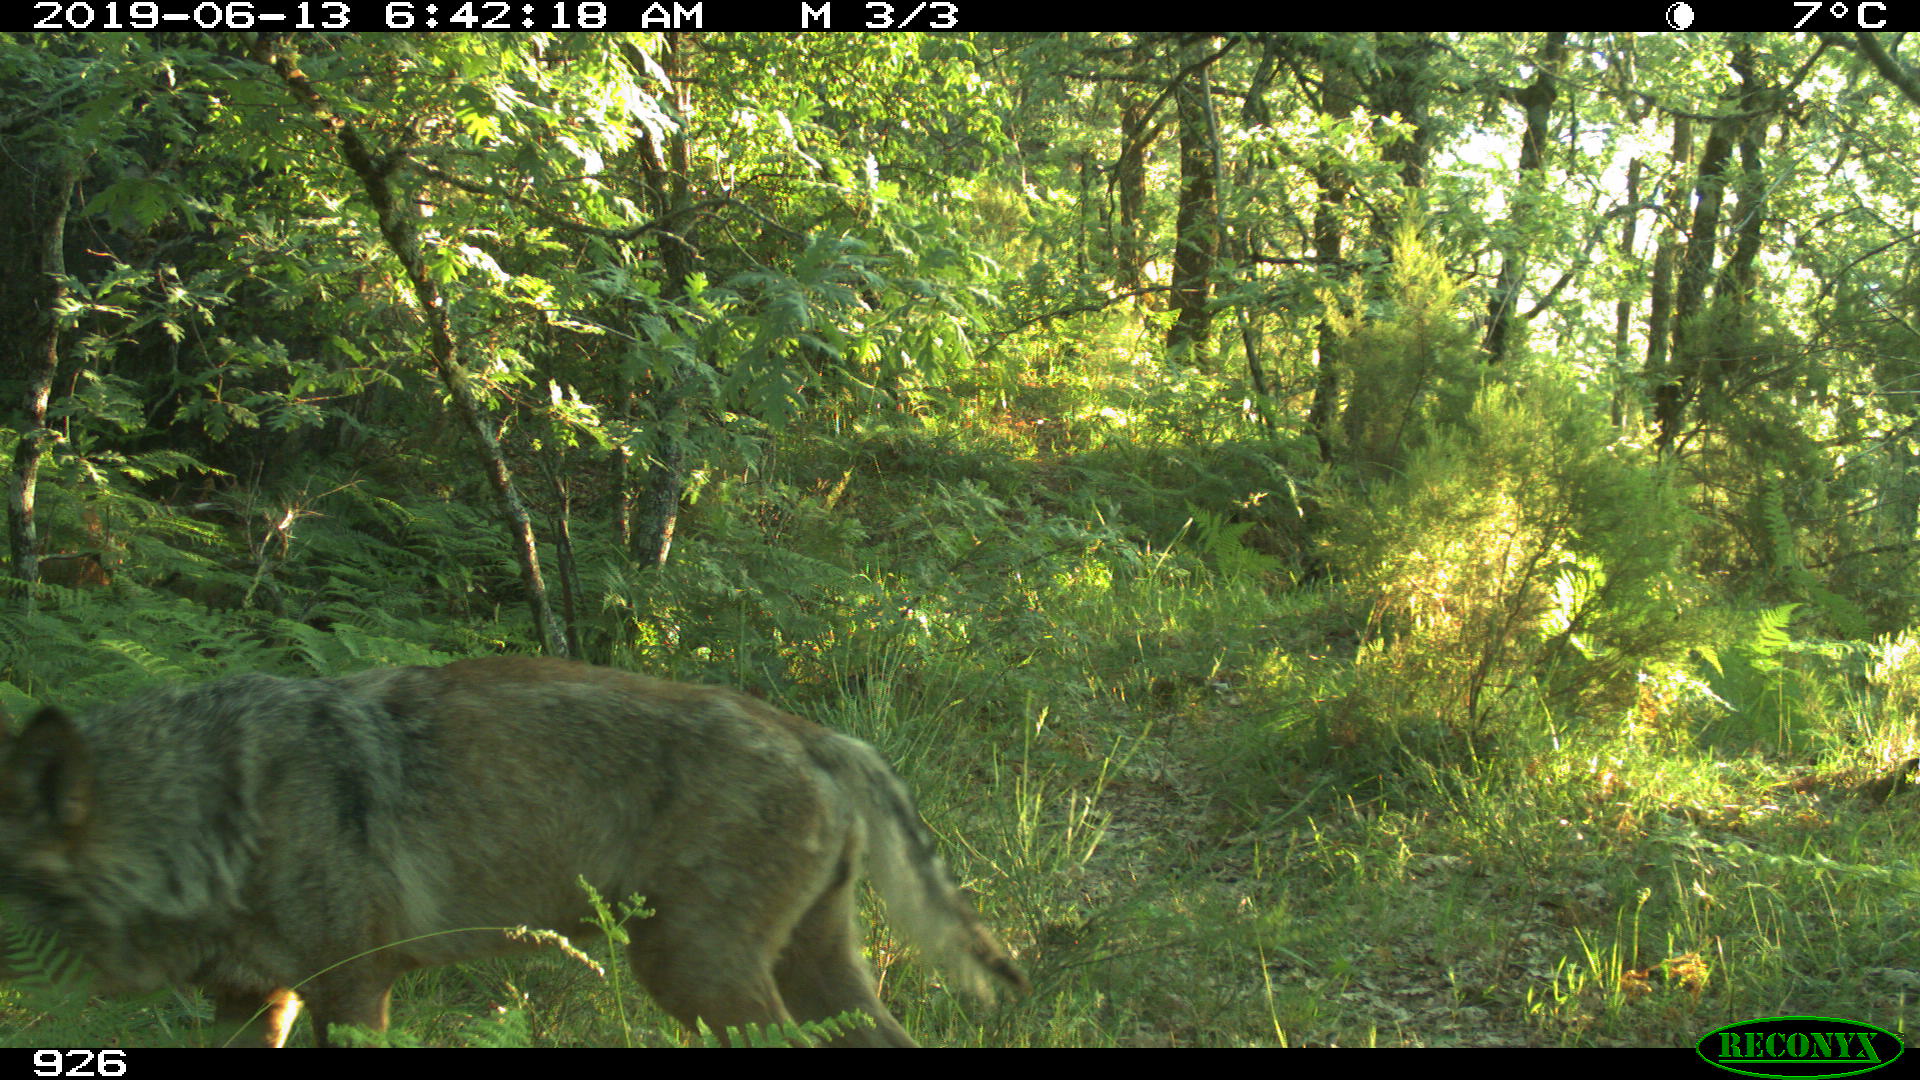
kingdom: Animalia
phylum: Chordata
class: Mammalia
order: Carnivora
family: Canidae
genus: Canis
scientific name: Canis lupus
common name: Gray wolf
